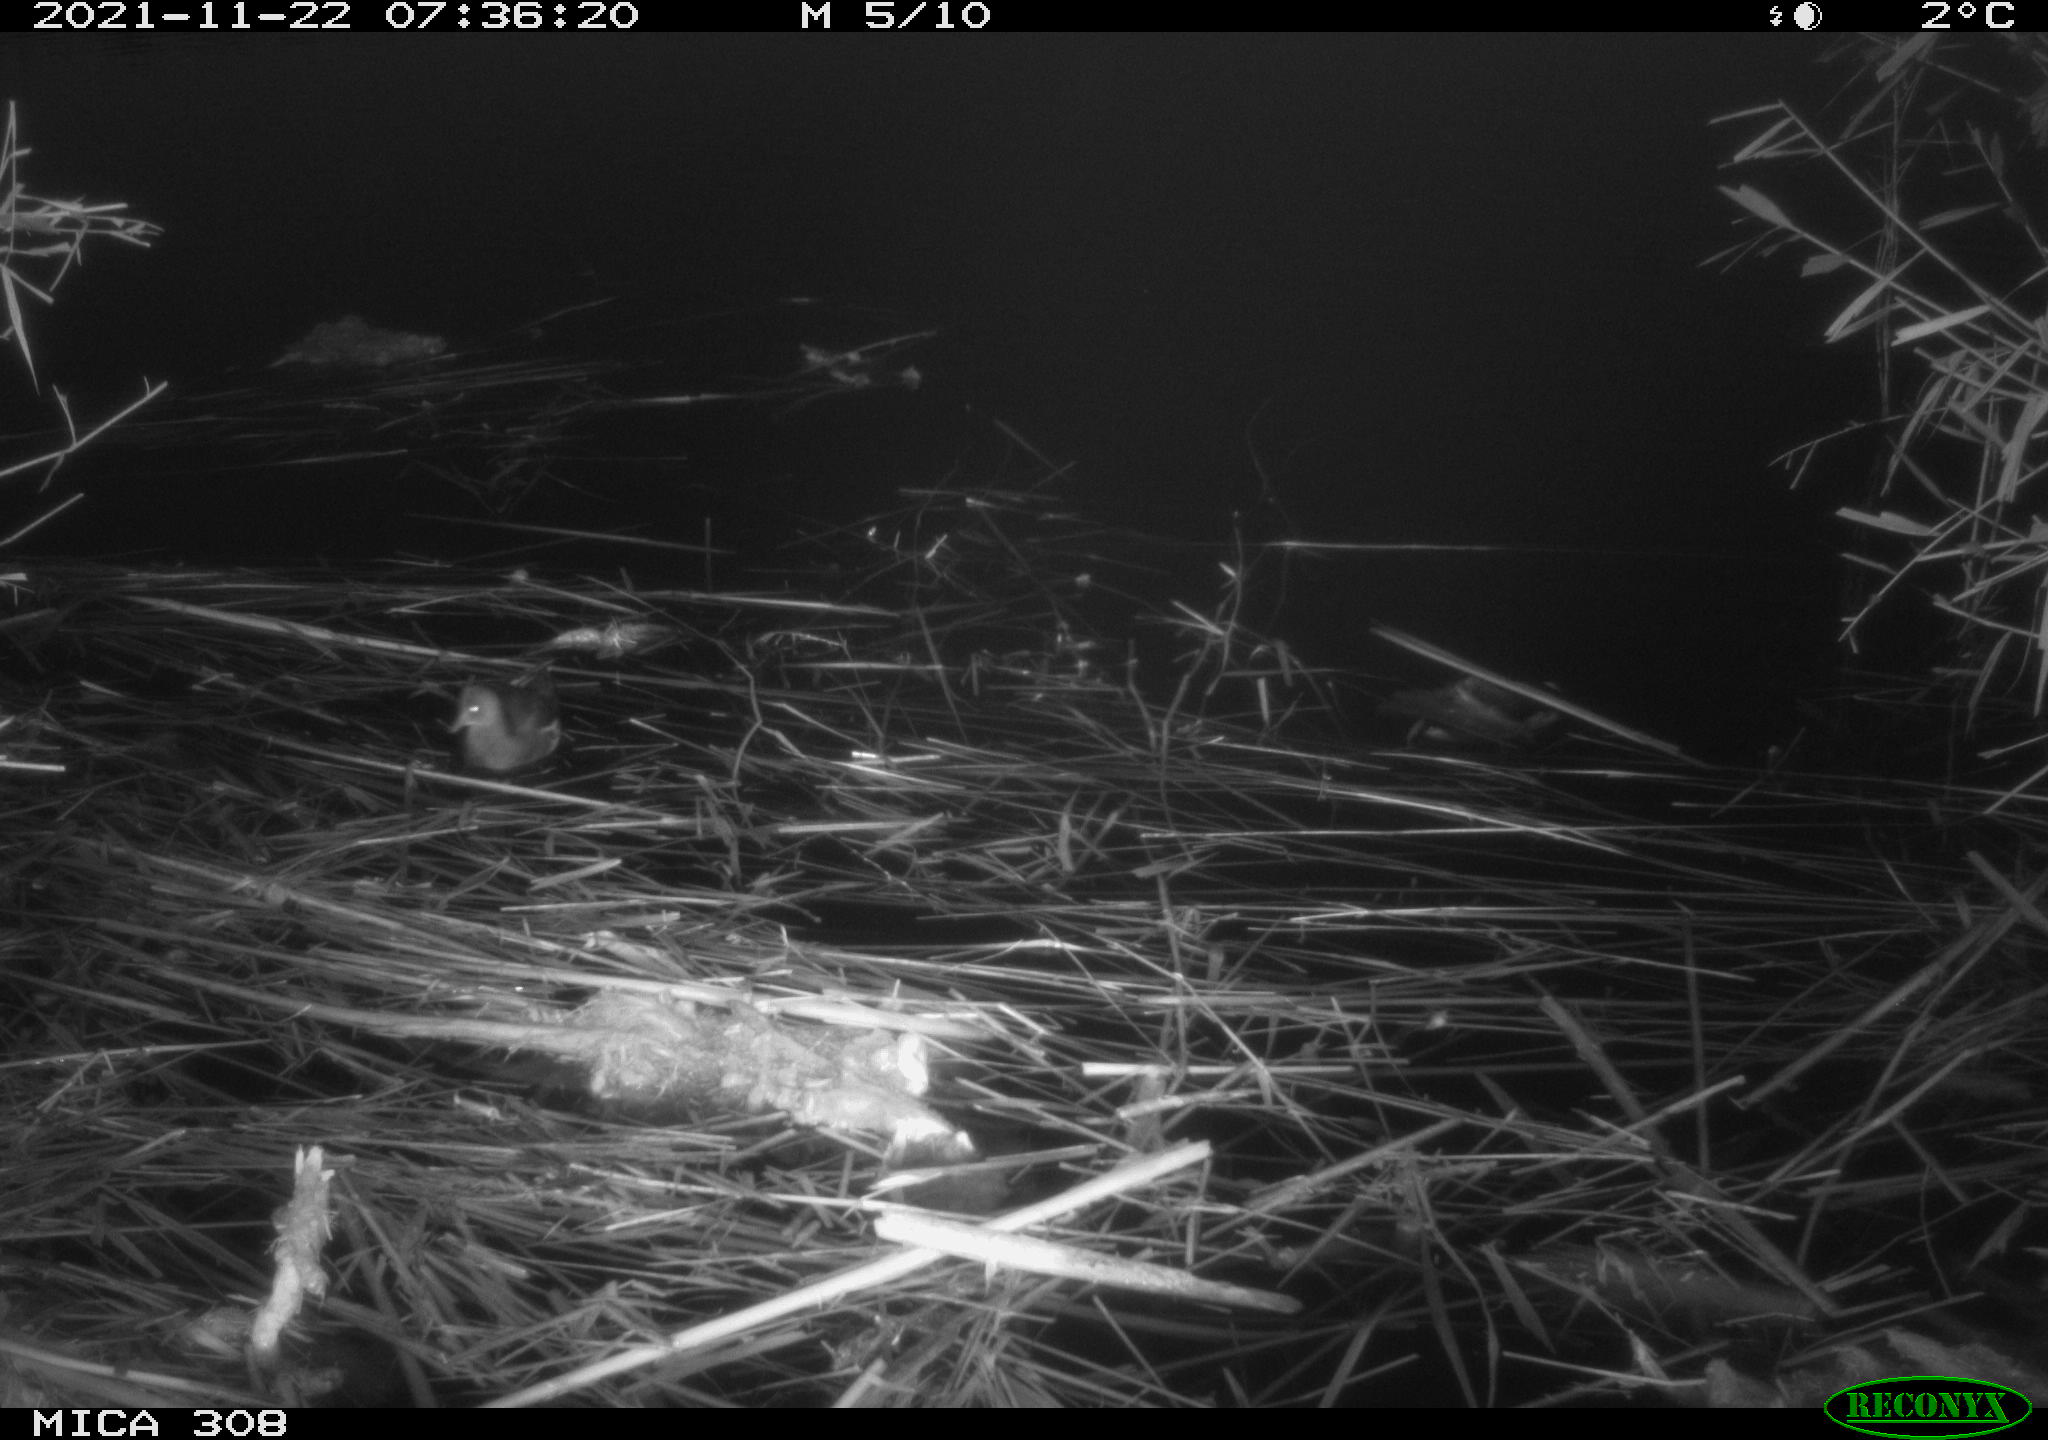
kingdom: Animalia
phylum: Chordata
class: Aves
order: Gruiformes
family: Rallidae
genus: Gallinula
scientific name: Gallinula chloropus
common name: Common moorhen
